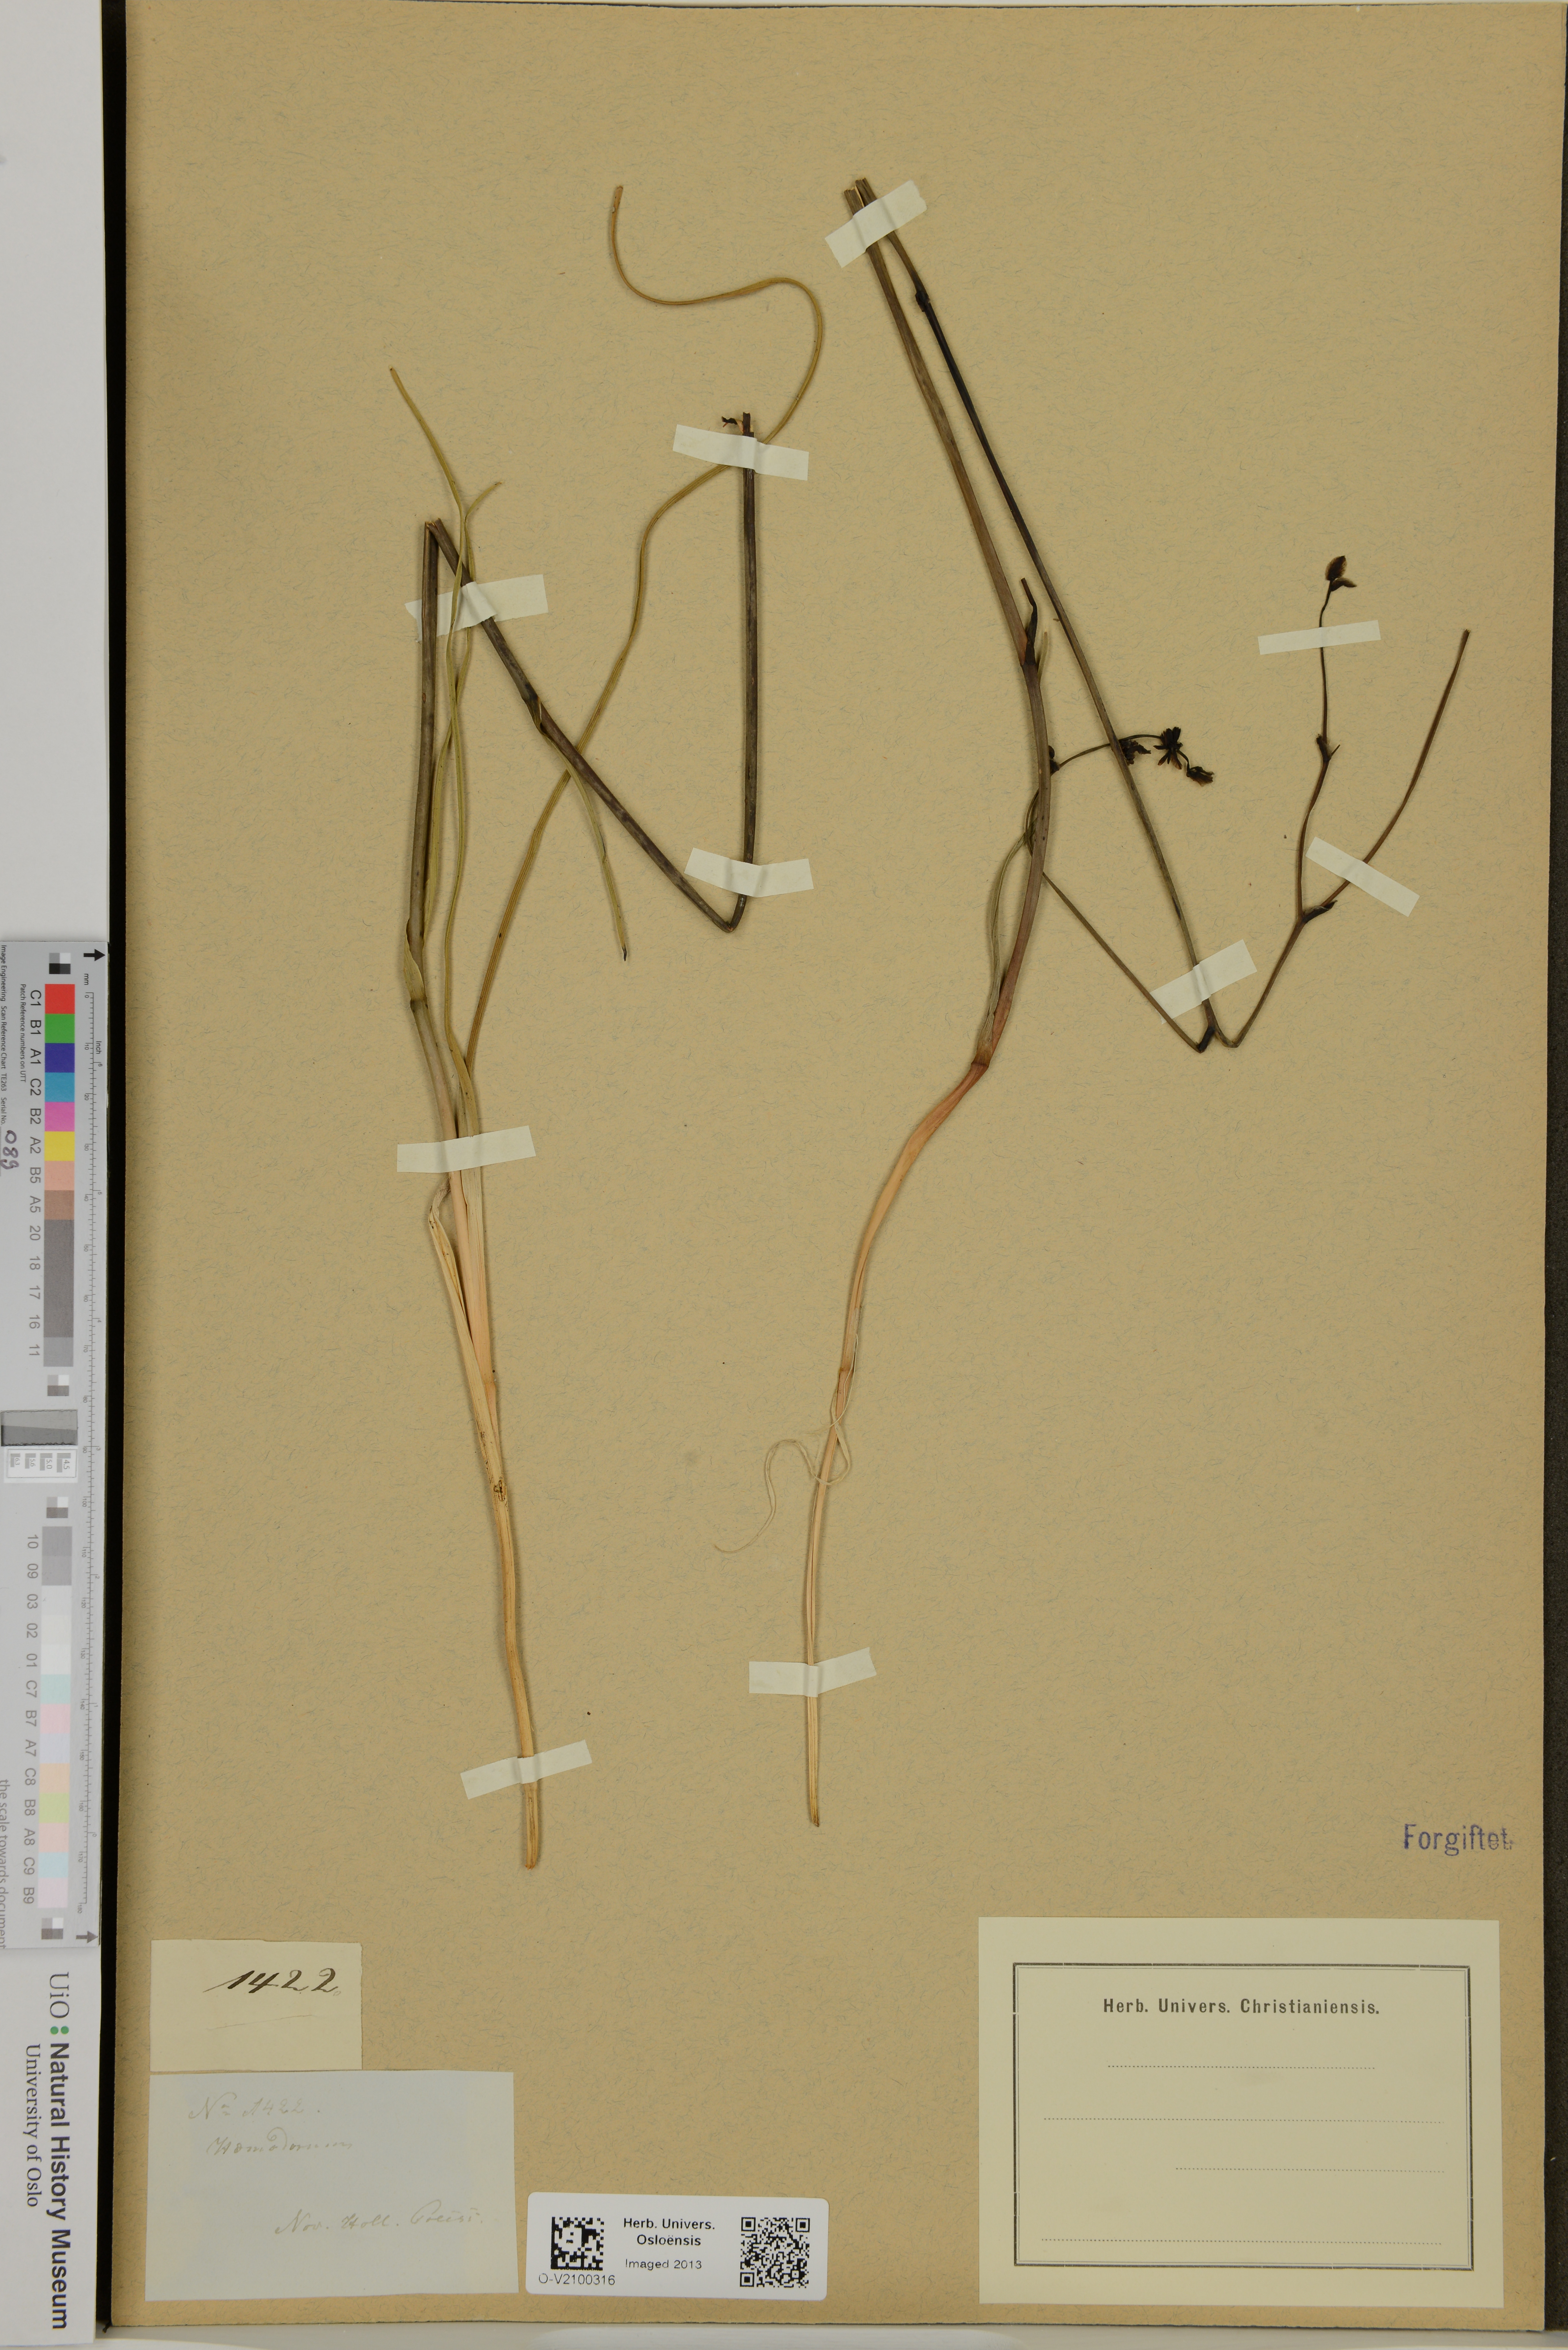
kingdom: Plantae
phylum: Tracheophyta
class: Liliopsida
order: Commelinales
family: Haemodoraceae
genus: Haemodorum
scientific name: Haemodorum
